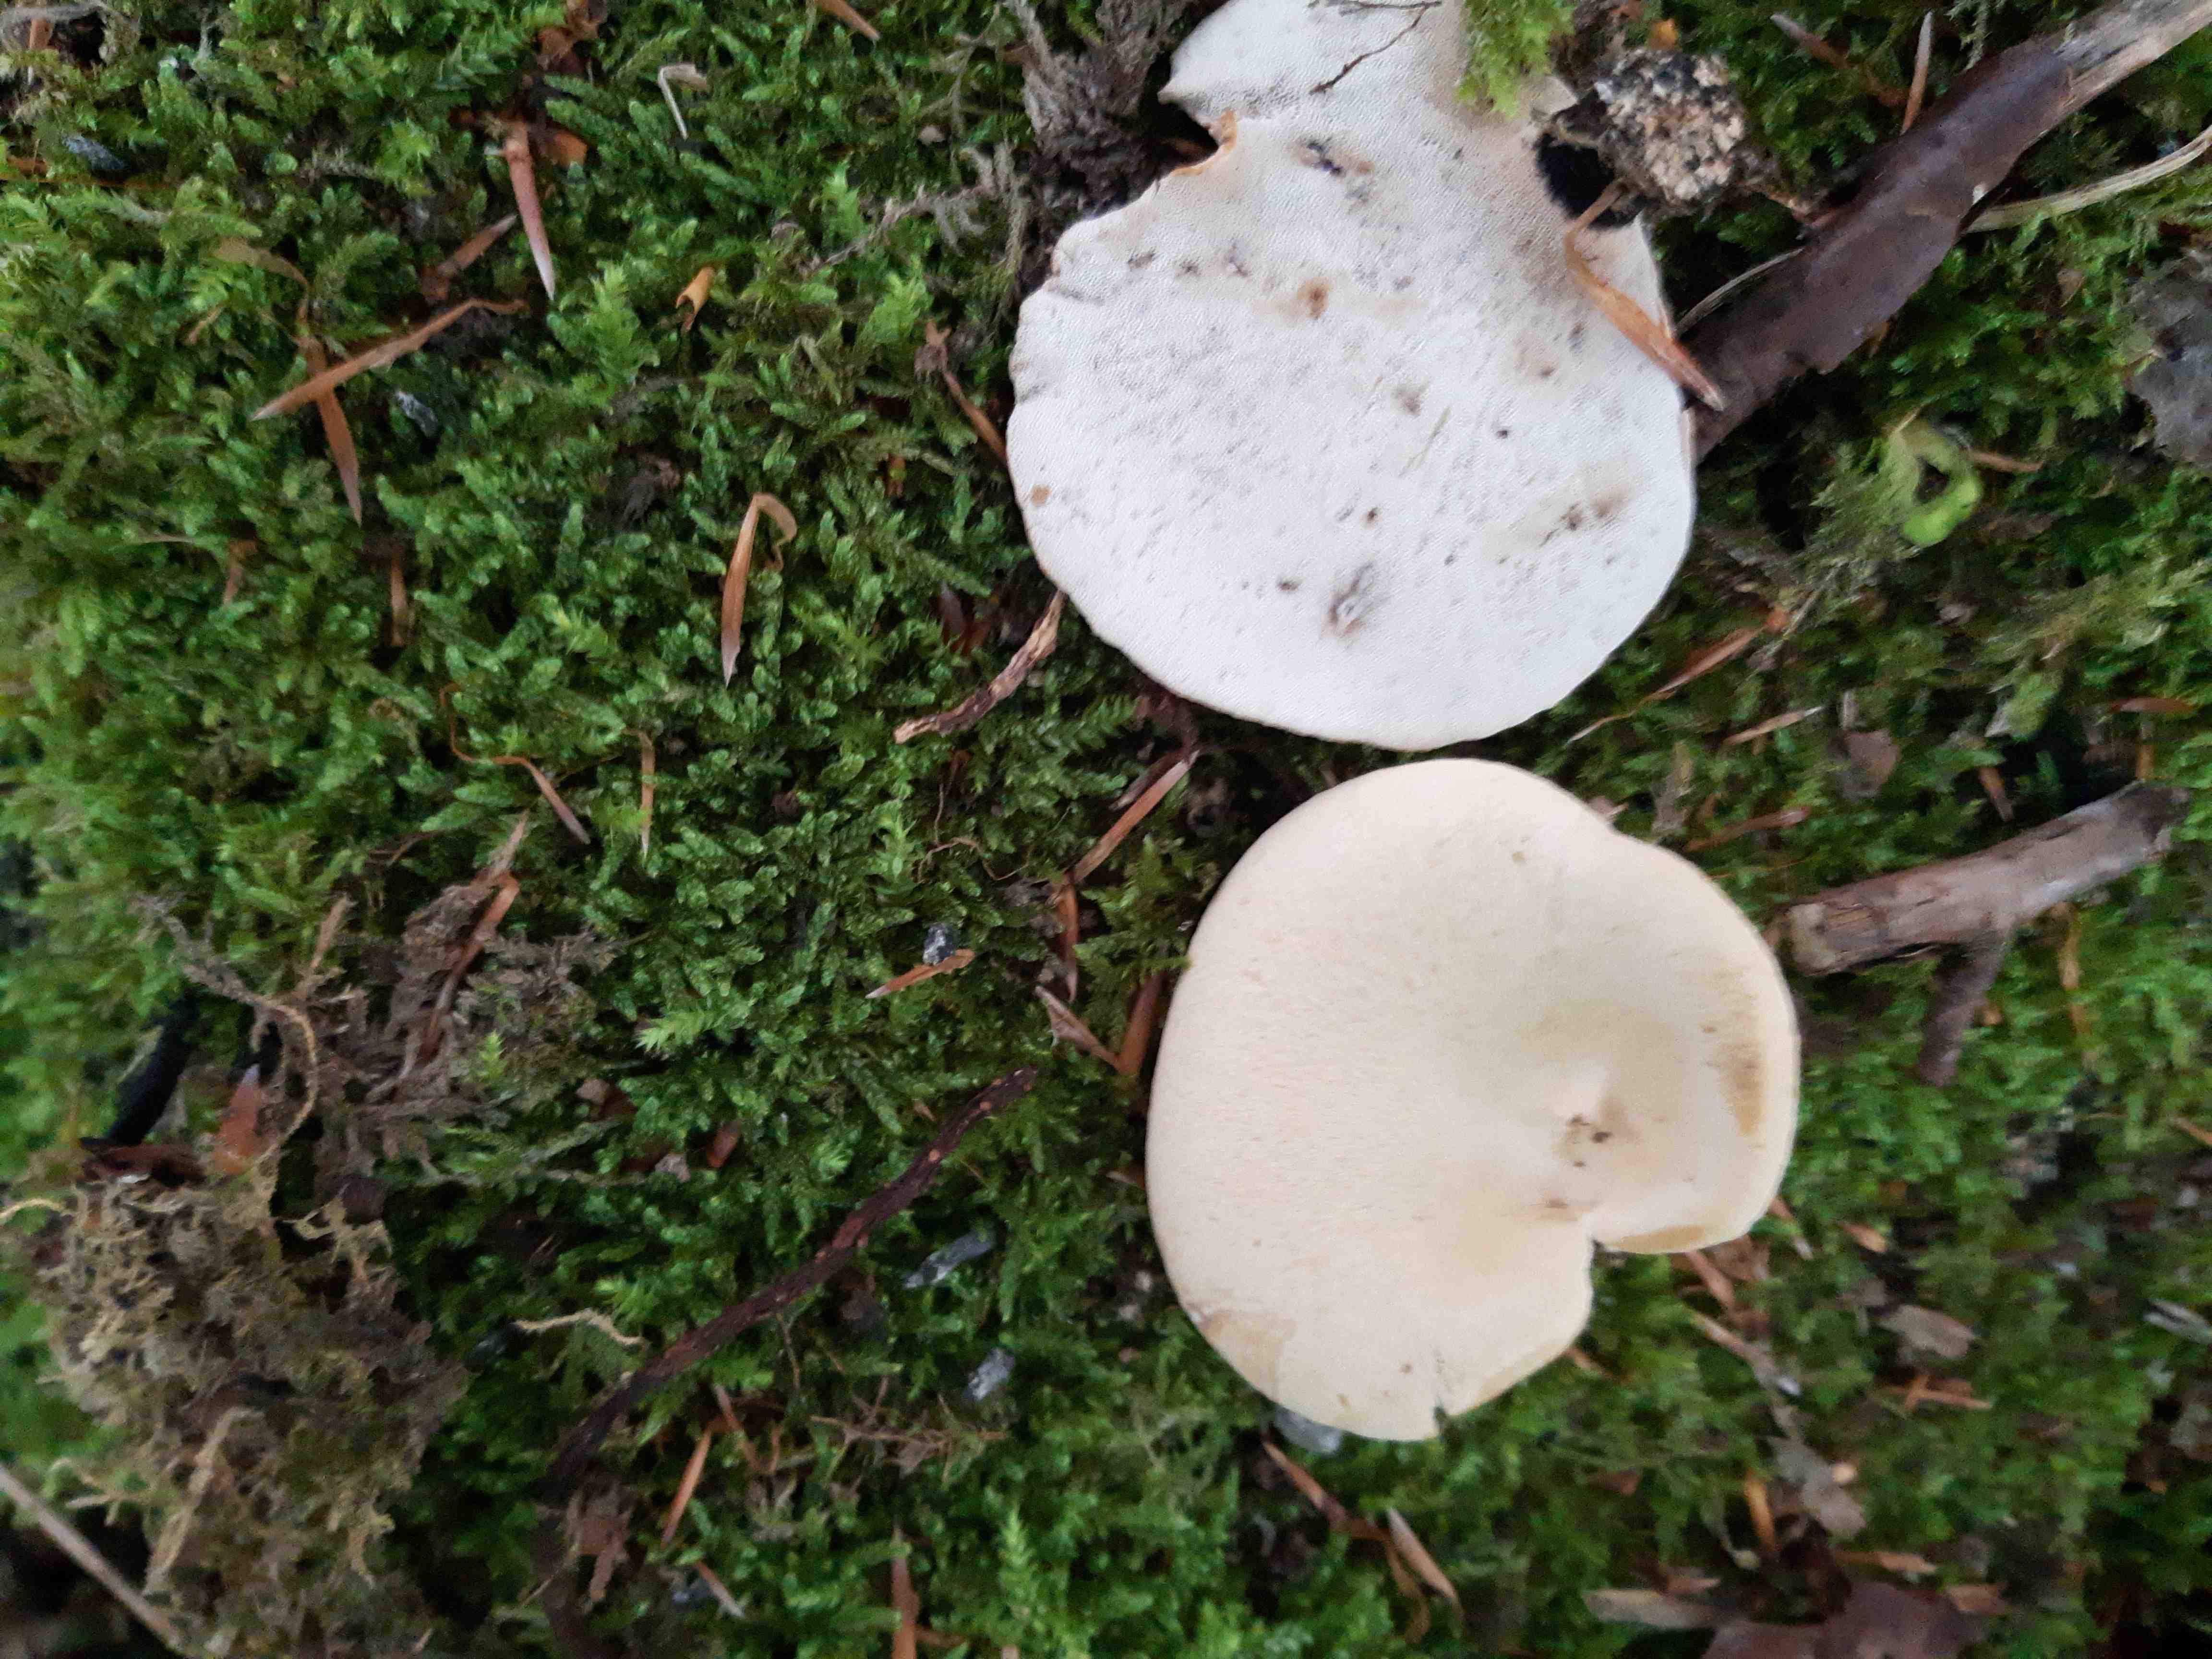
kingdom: Fungi
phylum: Basidiomycota
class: Agaricomycetes
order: Polyporales
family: Polyporaceae
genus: Cerioporus
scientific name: Cerioporus varius
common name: foranderlig stilkporesvamp
